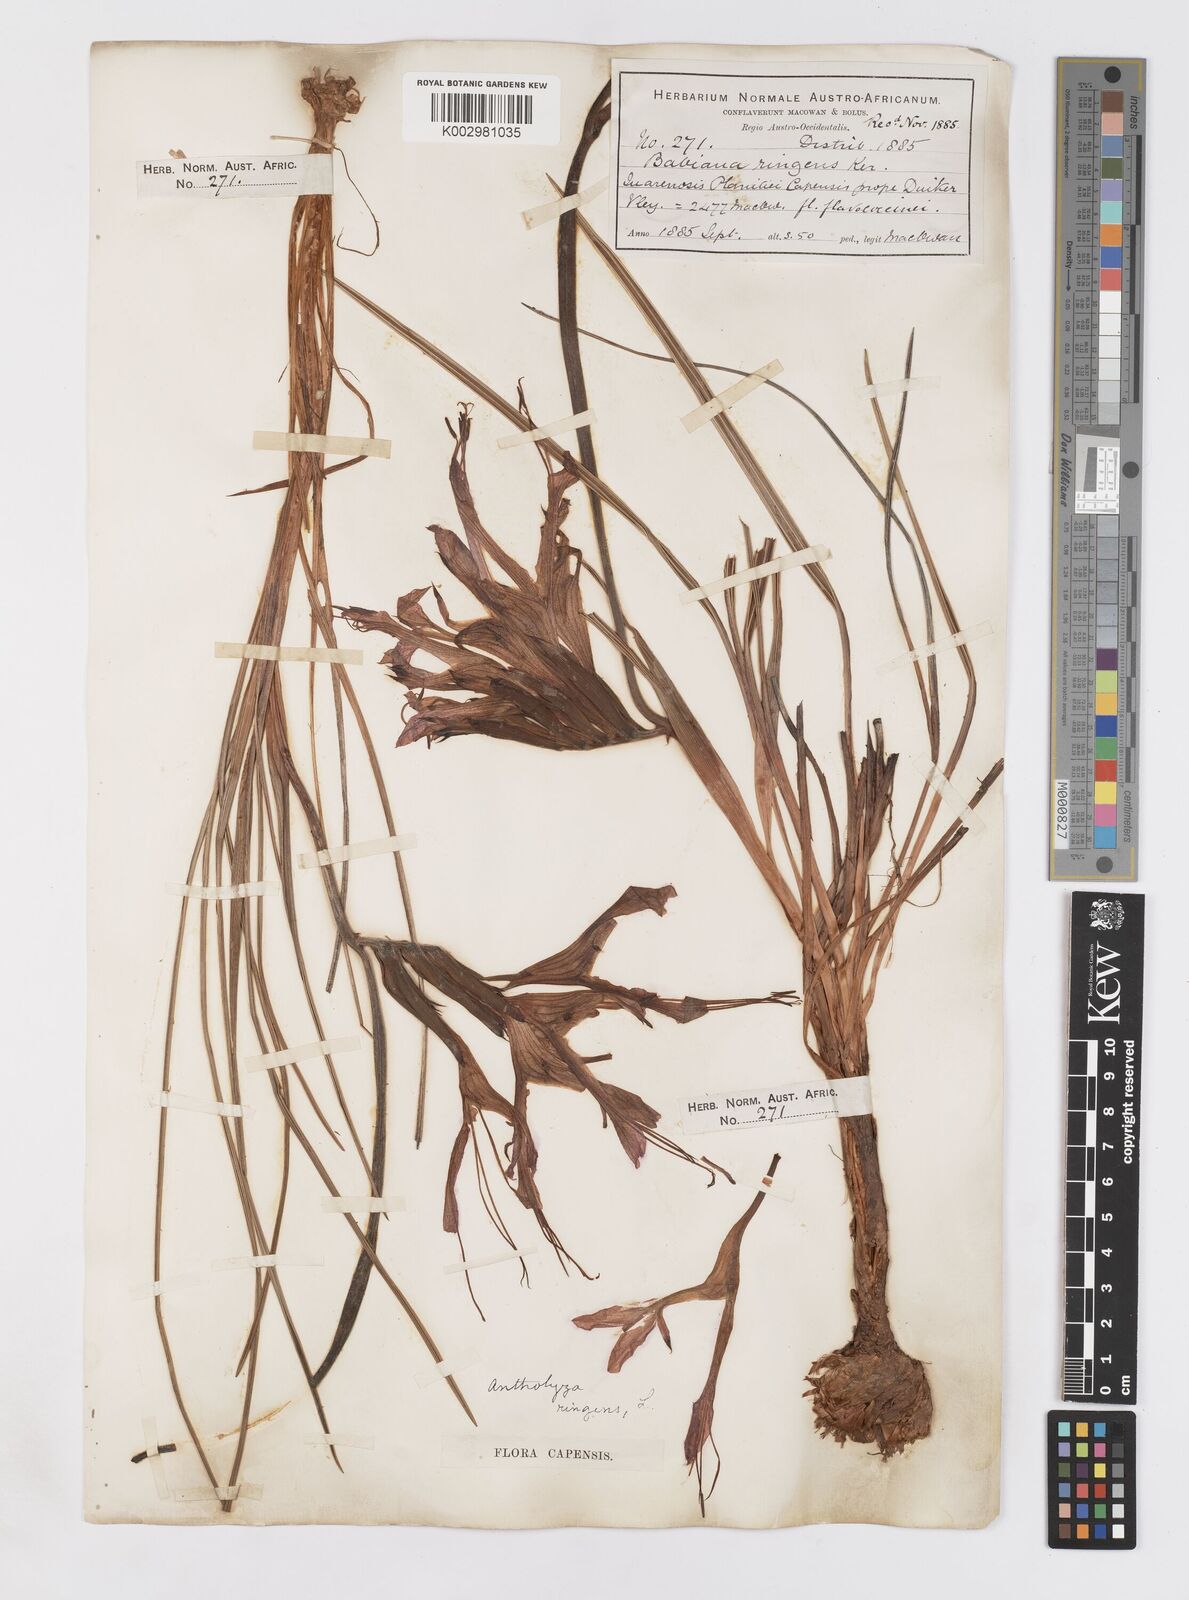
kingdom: Plantae
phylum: Tracheophyta
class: Liliopsida
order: Asparagales
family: Iridaceae
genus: Babiana
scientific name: Babiana ringens
